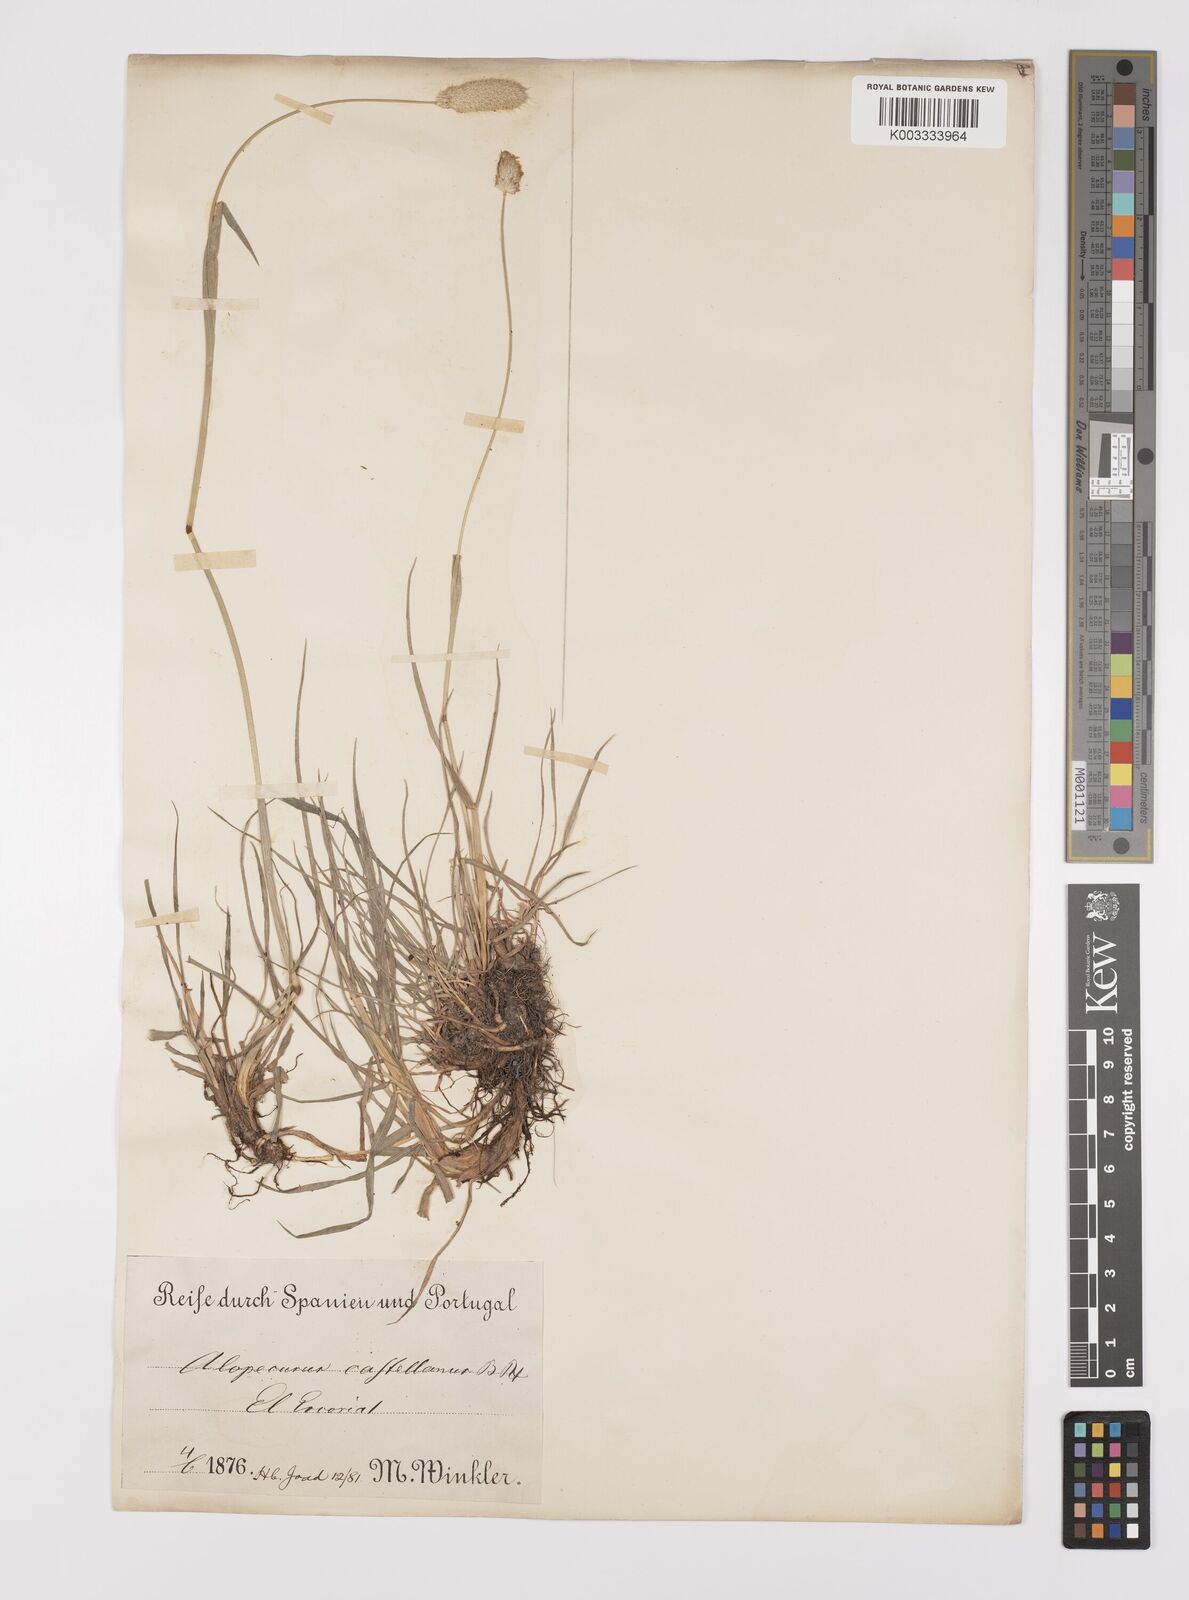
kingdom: Plantae
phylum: Tracheophyta
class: Liliopsida
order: Poales
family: Poaceae
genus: Alopecurus
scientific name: Alopecurus arundinaceus
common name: Creeping meadow foxtail
